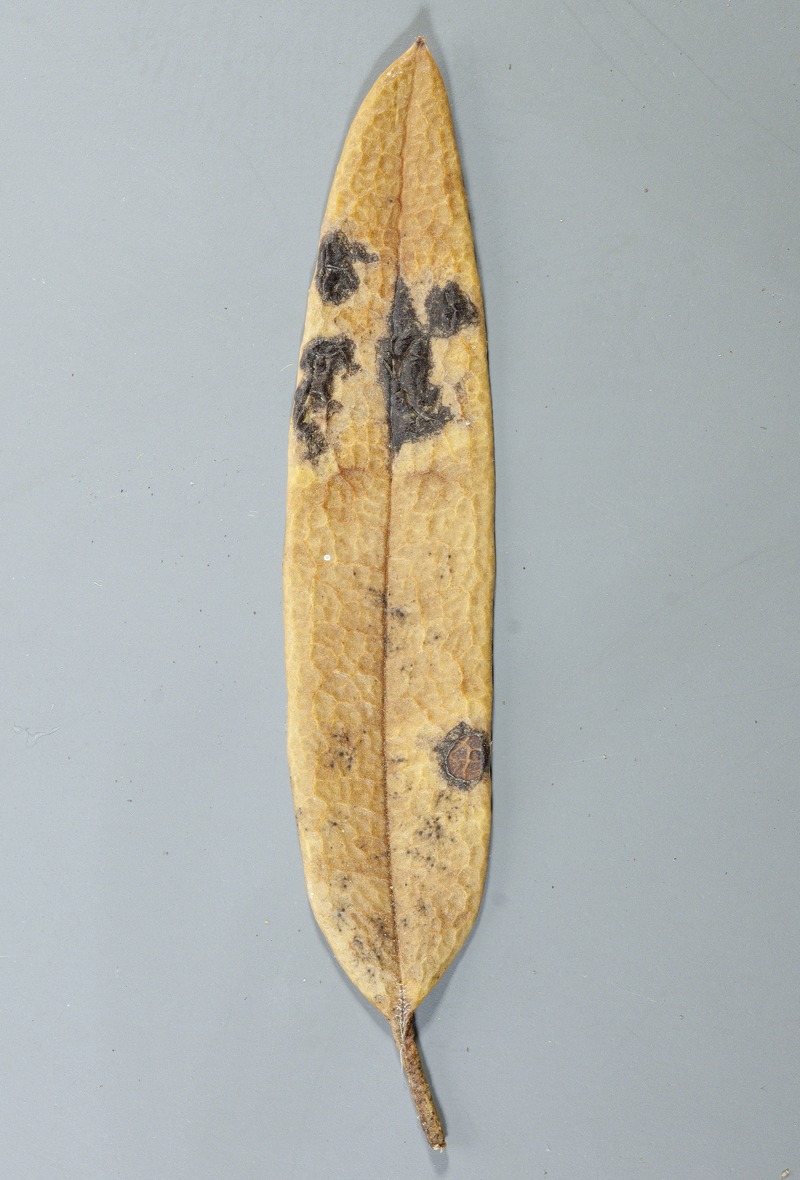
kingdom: Fungi
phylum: Ascomycota
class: Leotiomycetes
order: Rhytismatales
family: Rhytismataceae
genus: Rhytisma
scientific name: Rhytisma itatiaiae
